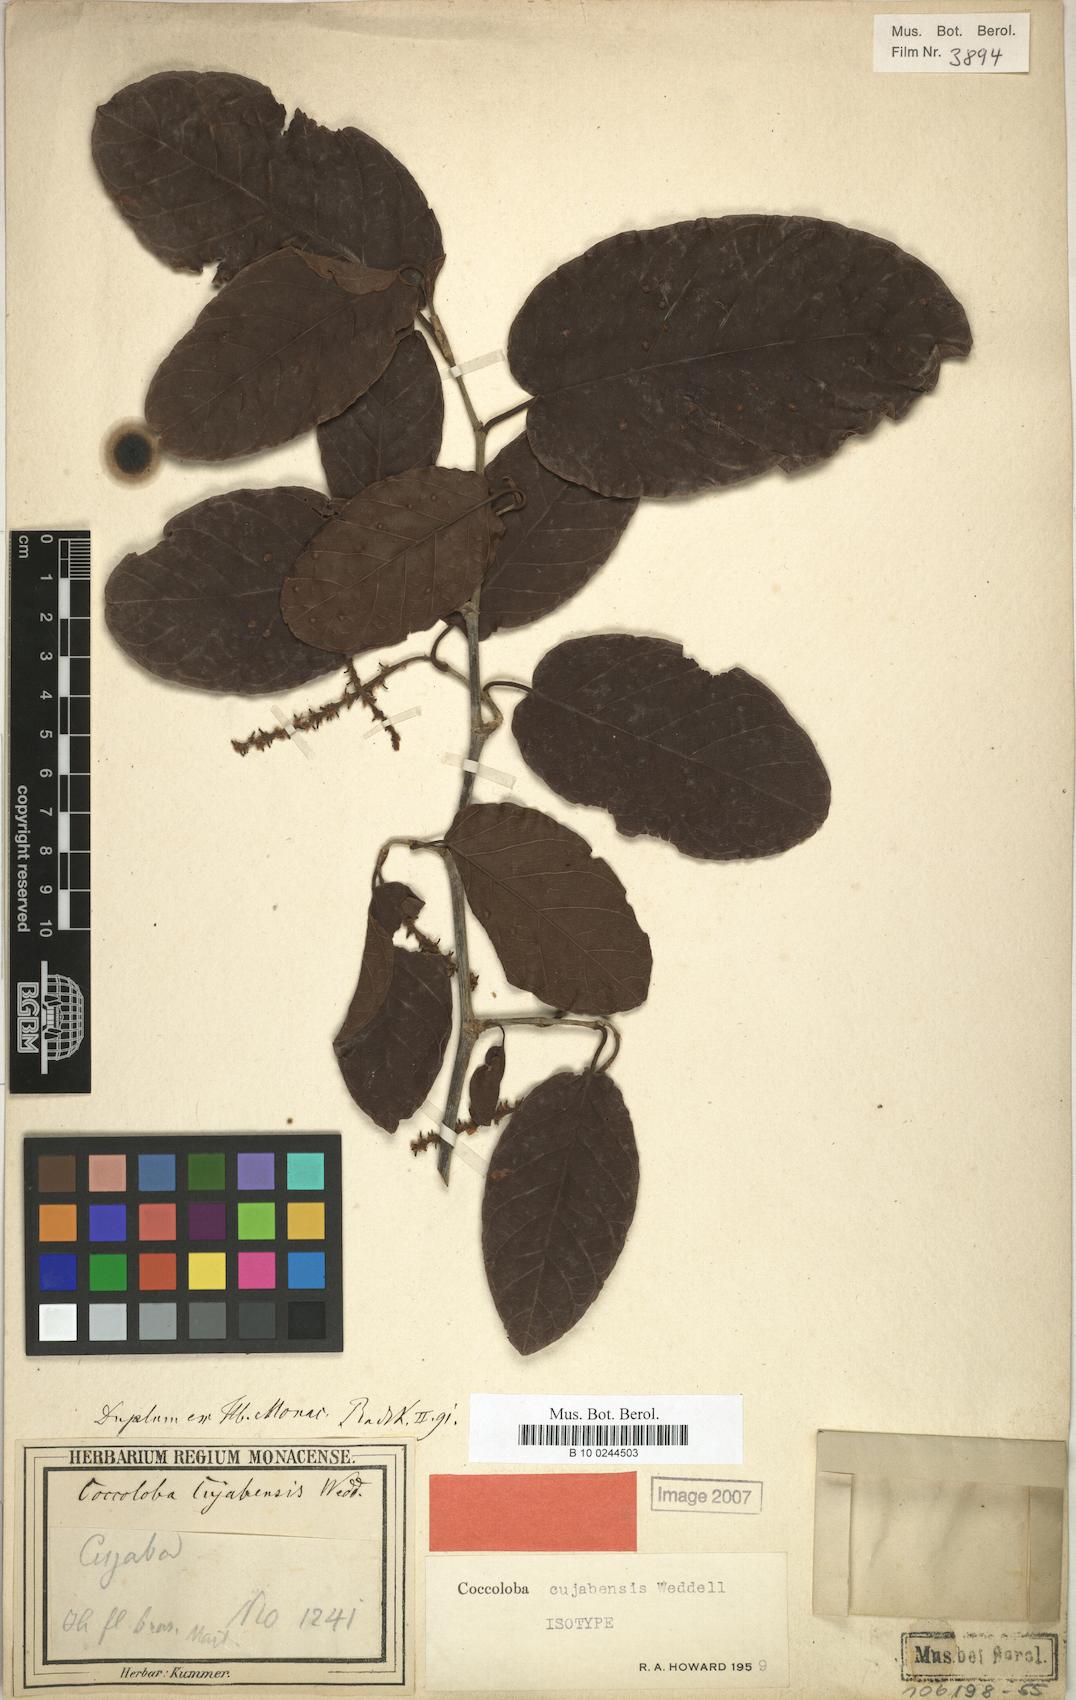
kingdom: Plantae
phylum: Tracheophyta
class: Magnoliopsida
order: Caryophyllales
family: Polygonaceae
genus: Coccoloba
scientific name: Coccoloba cujabensis
